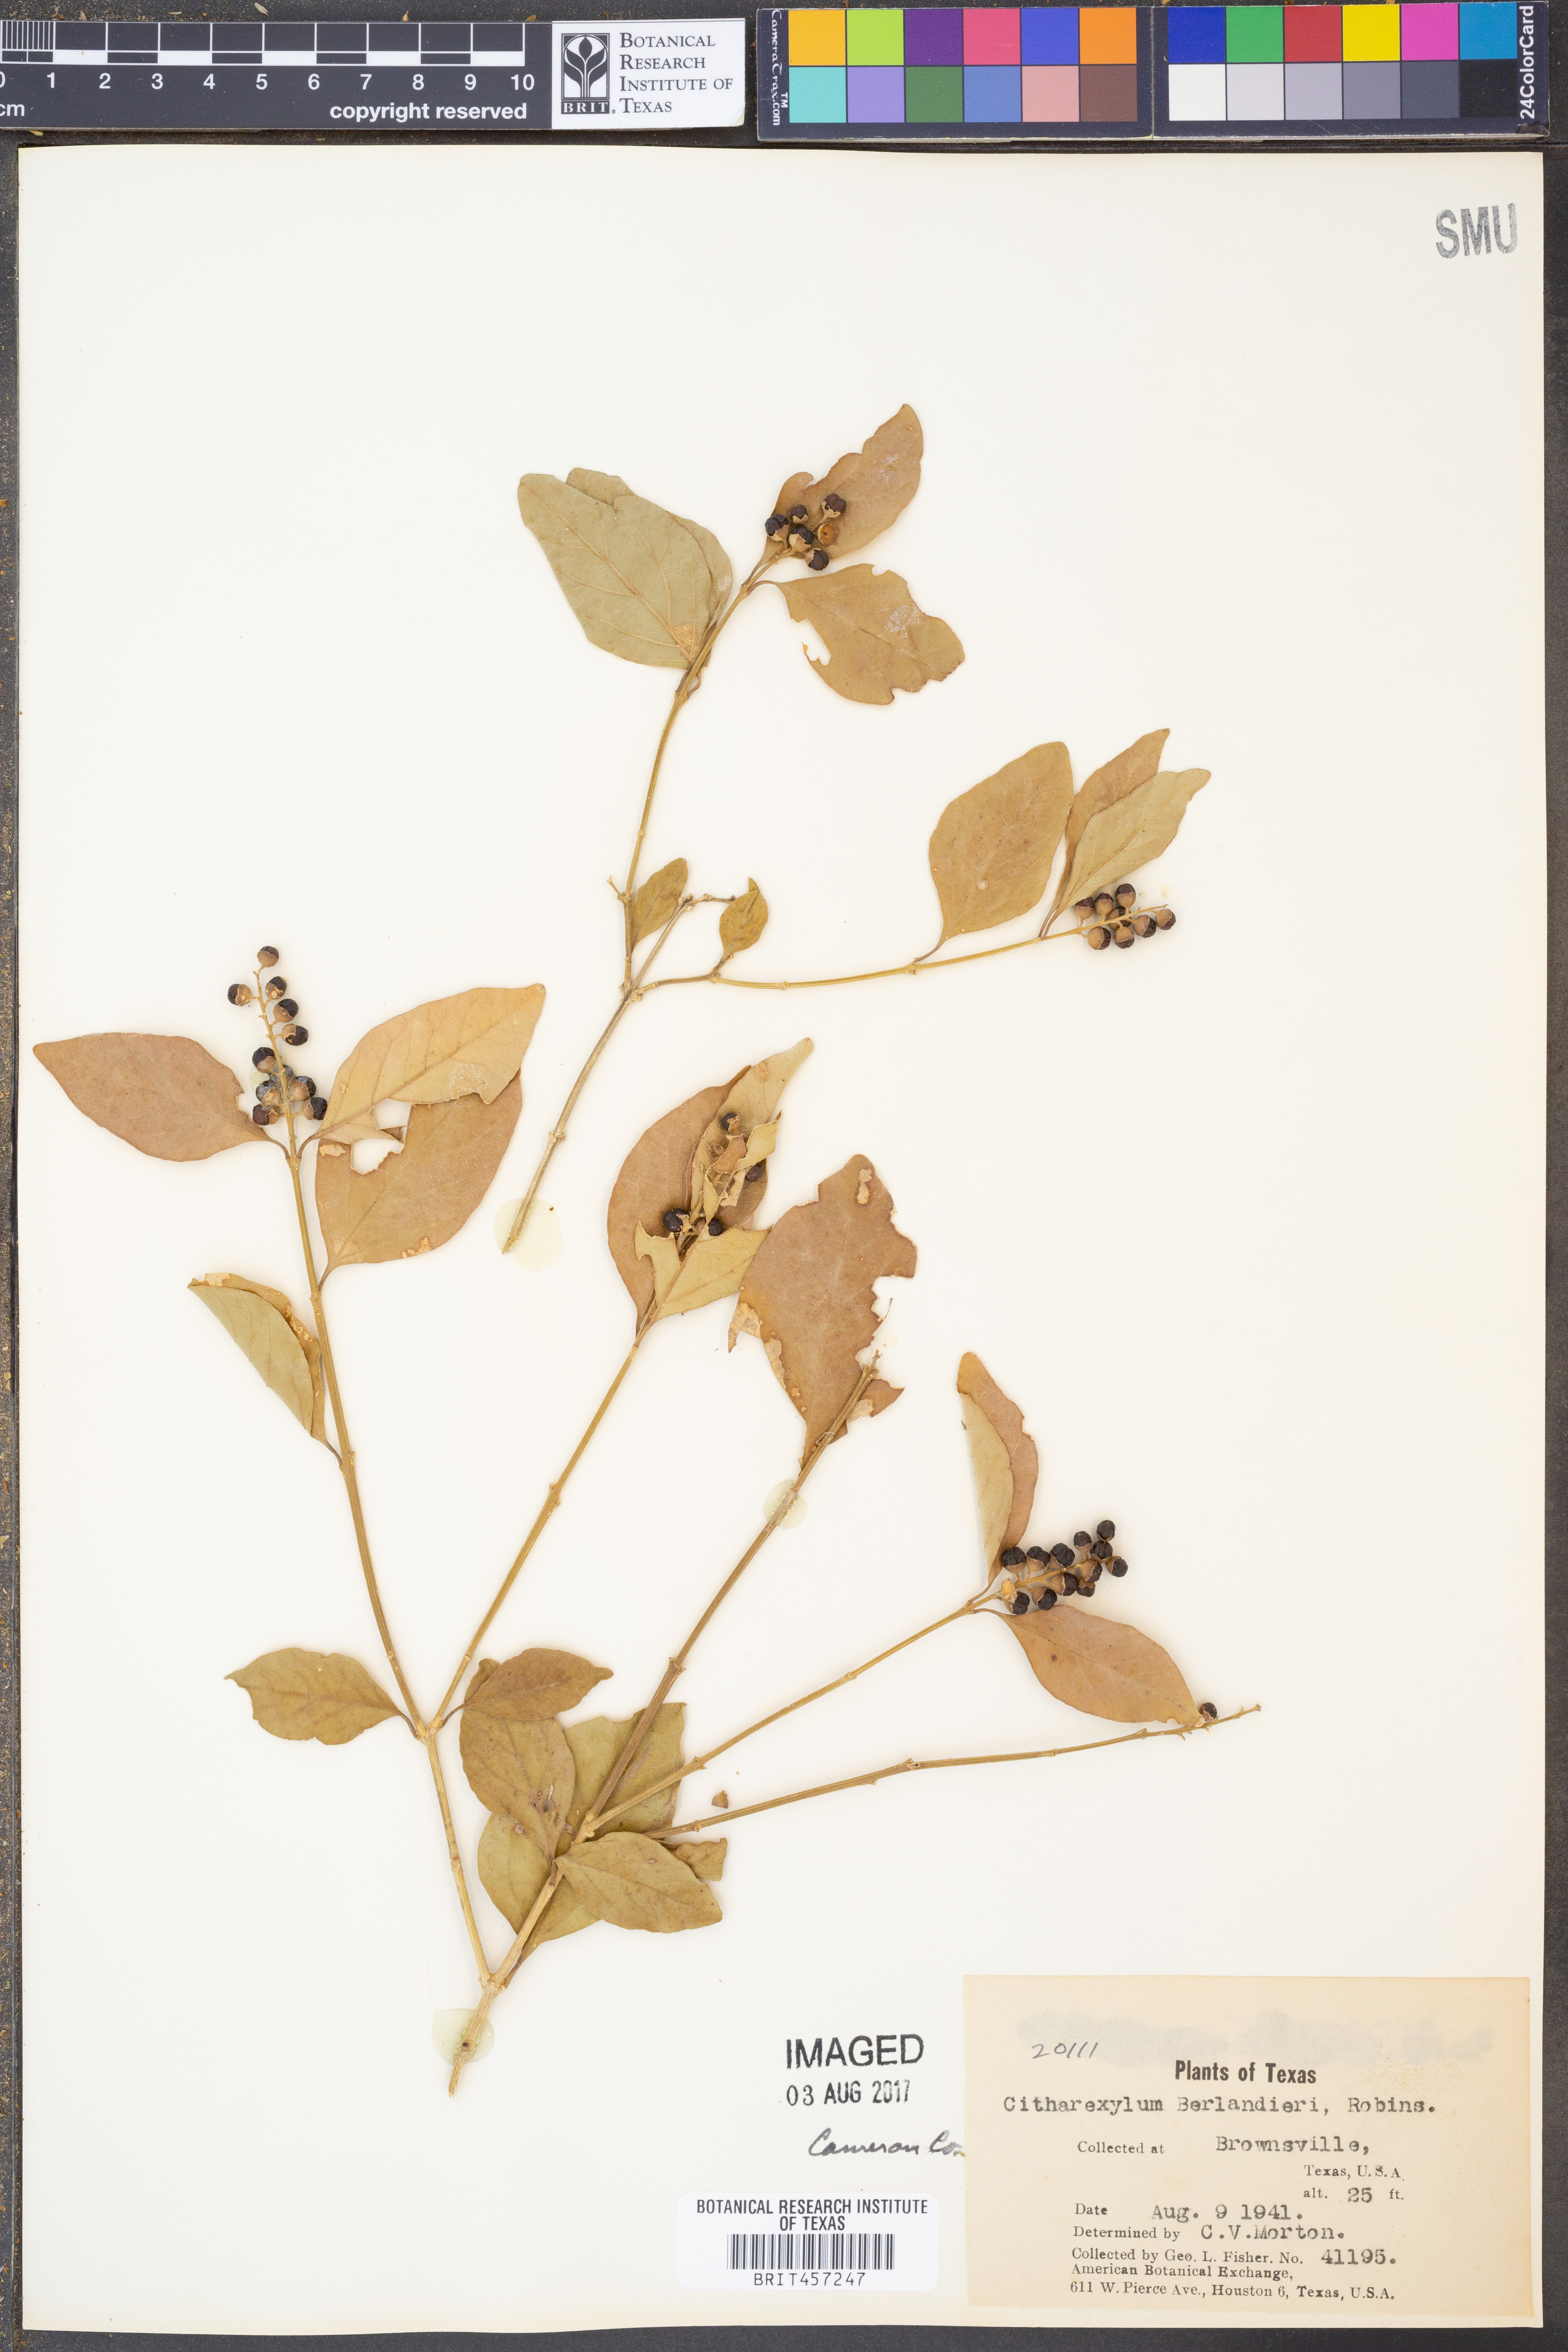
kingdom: Plantae
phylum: Tracheophyta
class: Magnoliopsida
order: Lamiales
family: Verbenaceae
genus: Citharexylum
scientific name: Citharexylum berlandieri
